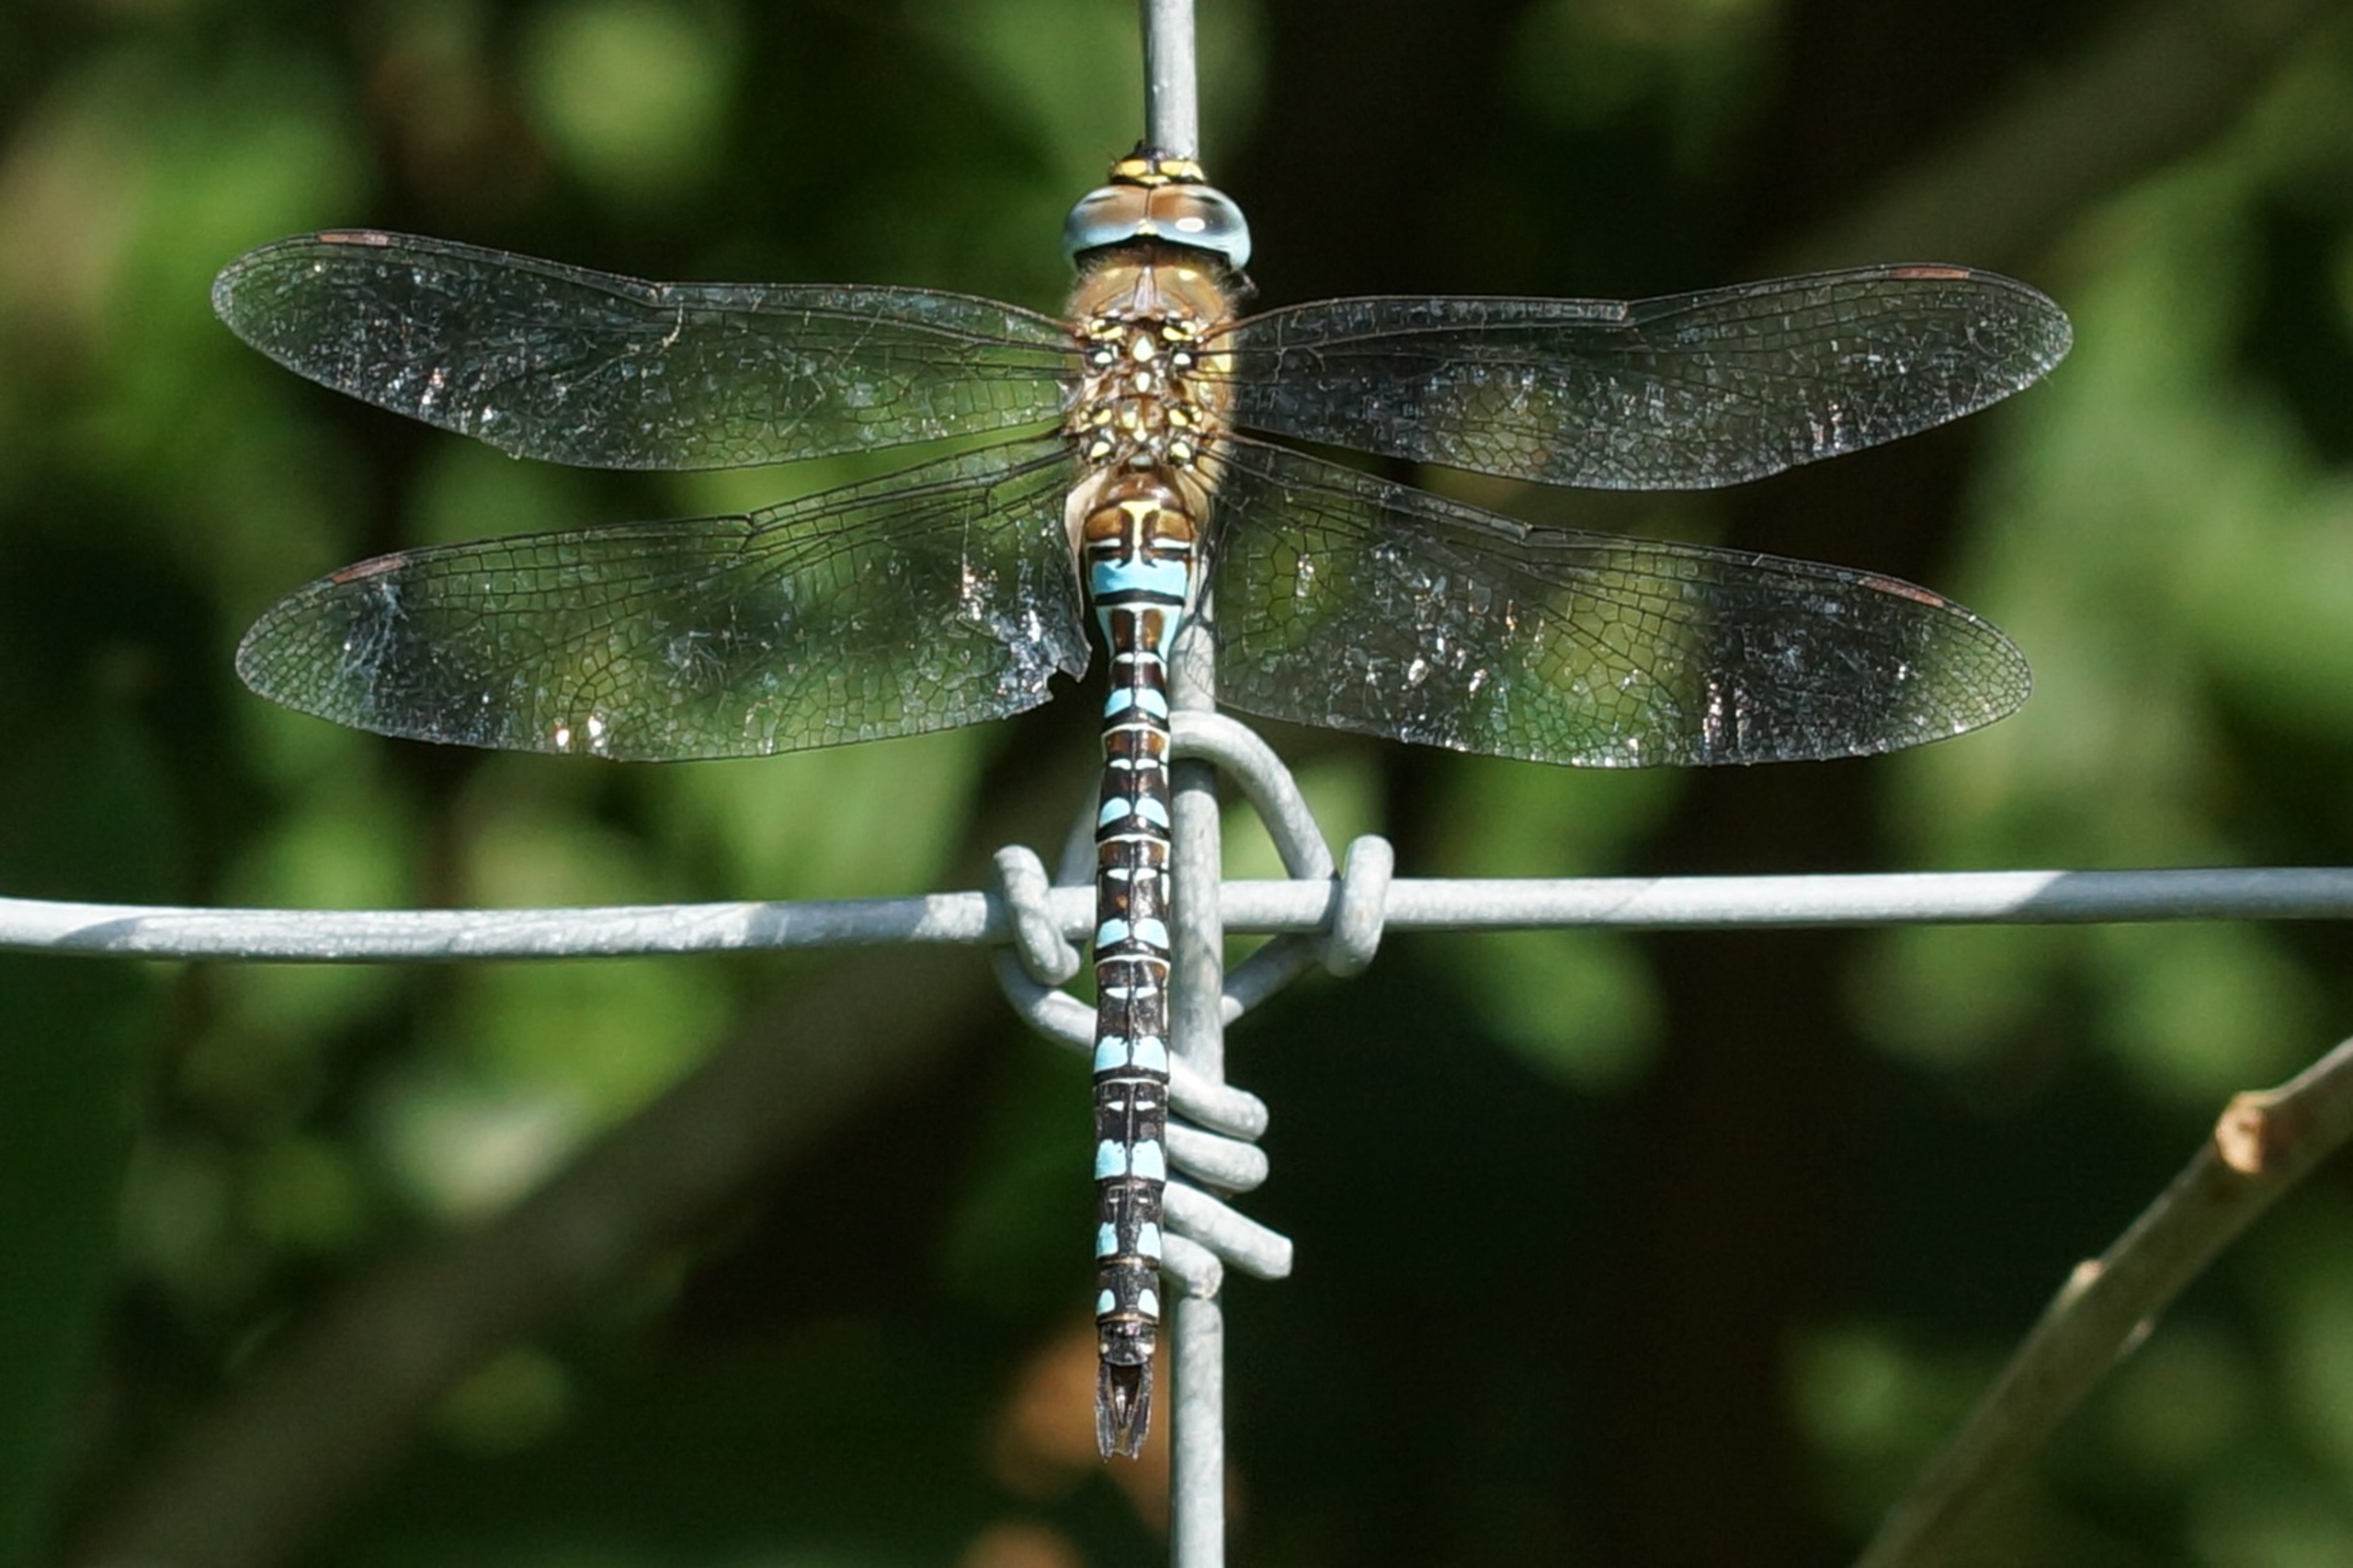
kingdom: Animalia
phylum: Arthropoda
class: Insecta
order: Odonata
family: Aeshnidae
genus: Aeshna
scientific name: Aeshna mixta
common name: Efterårs-mosaikguldsmed
